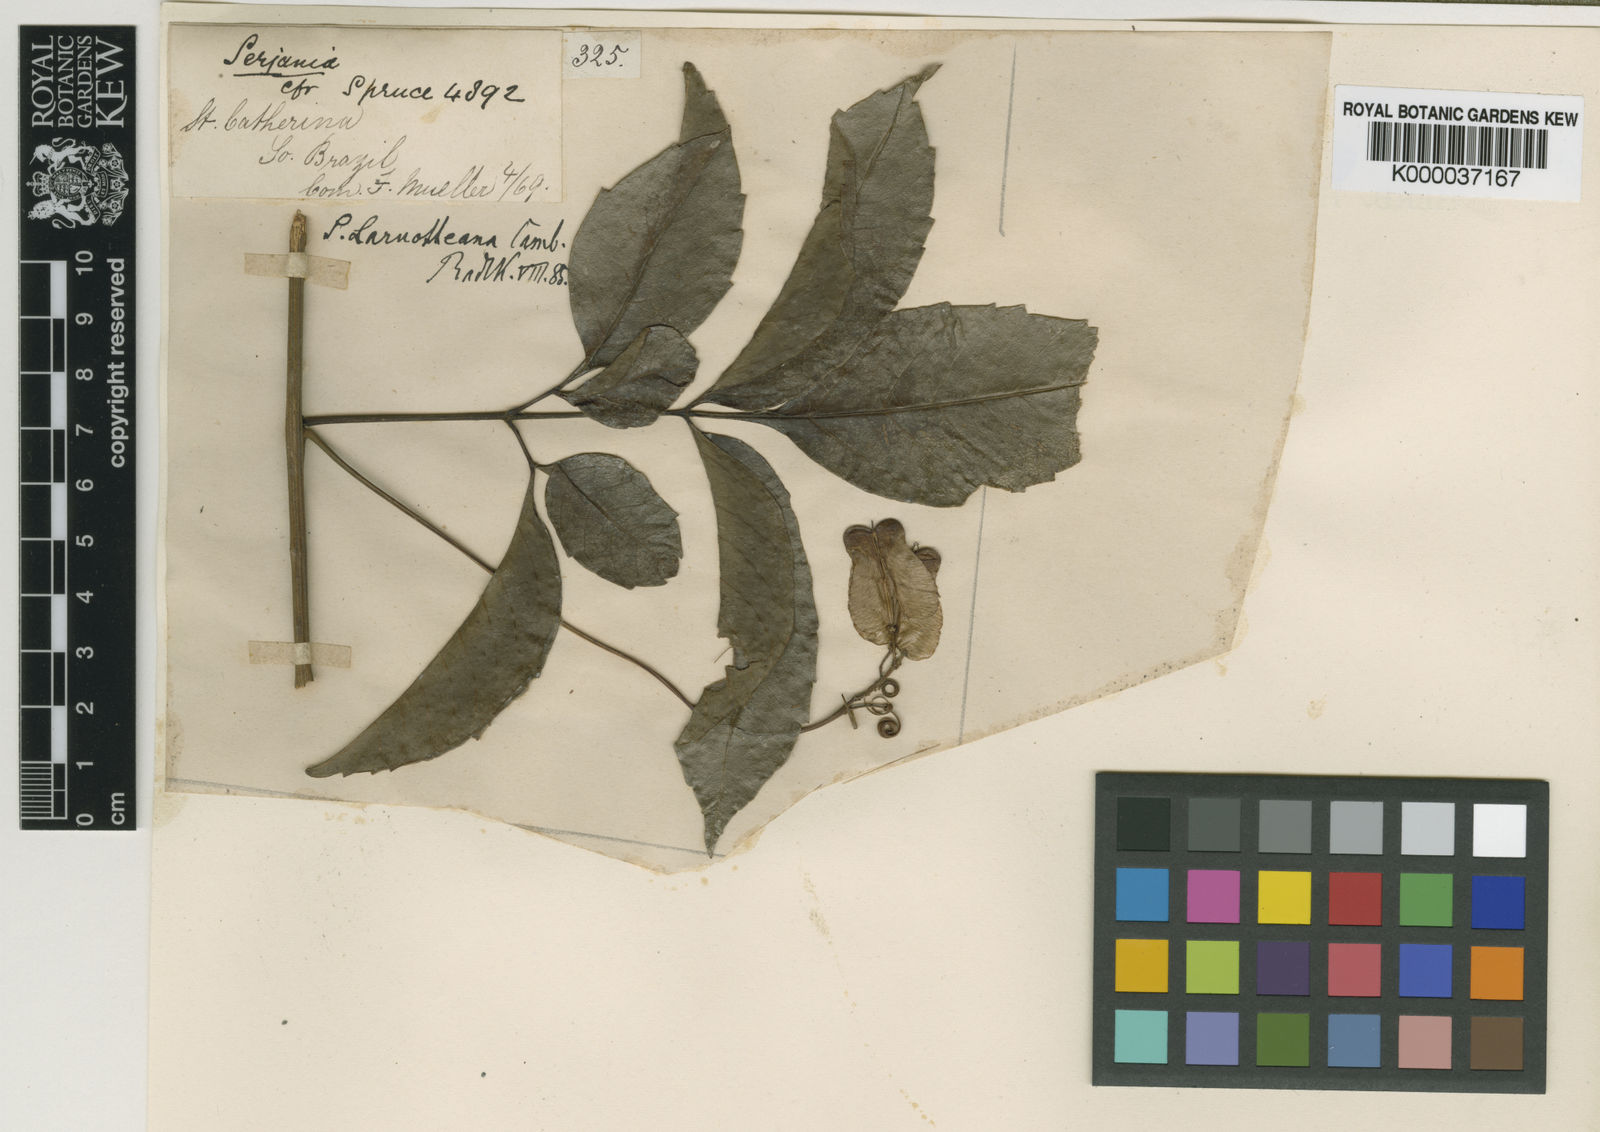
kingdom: Plantae
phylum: Tracheophyta
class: Magnoliopsida
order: Sapindales
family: Sapindaceae
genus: Serjania
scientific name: Serjania laruotteana
